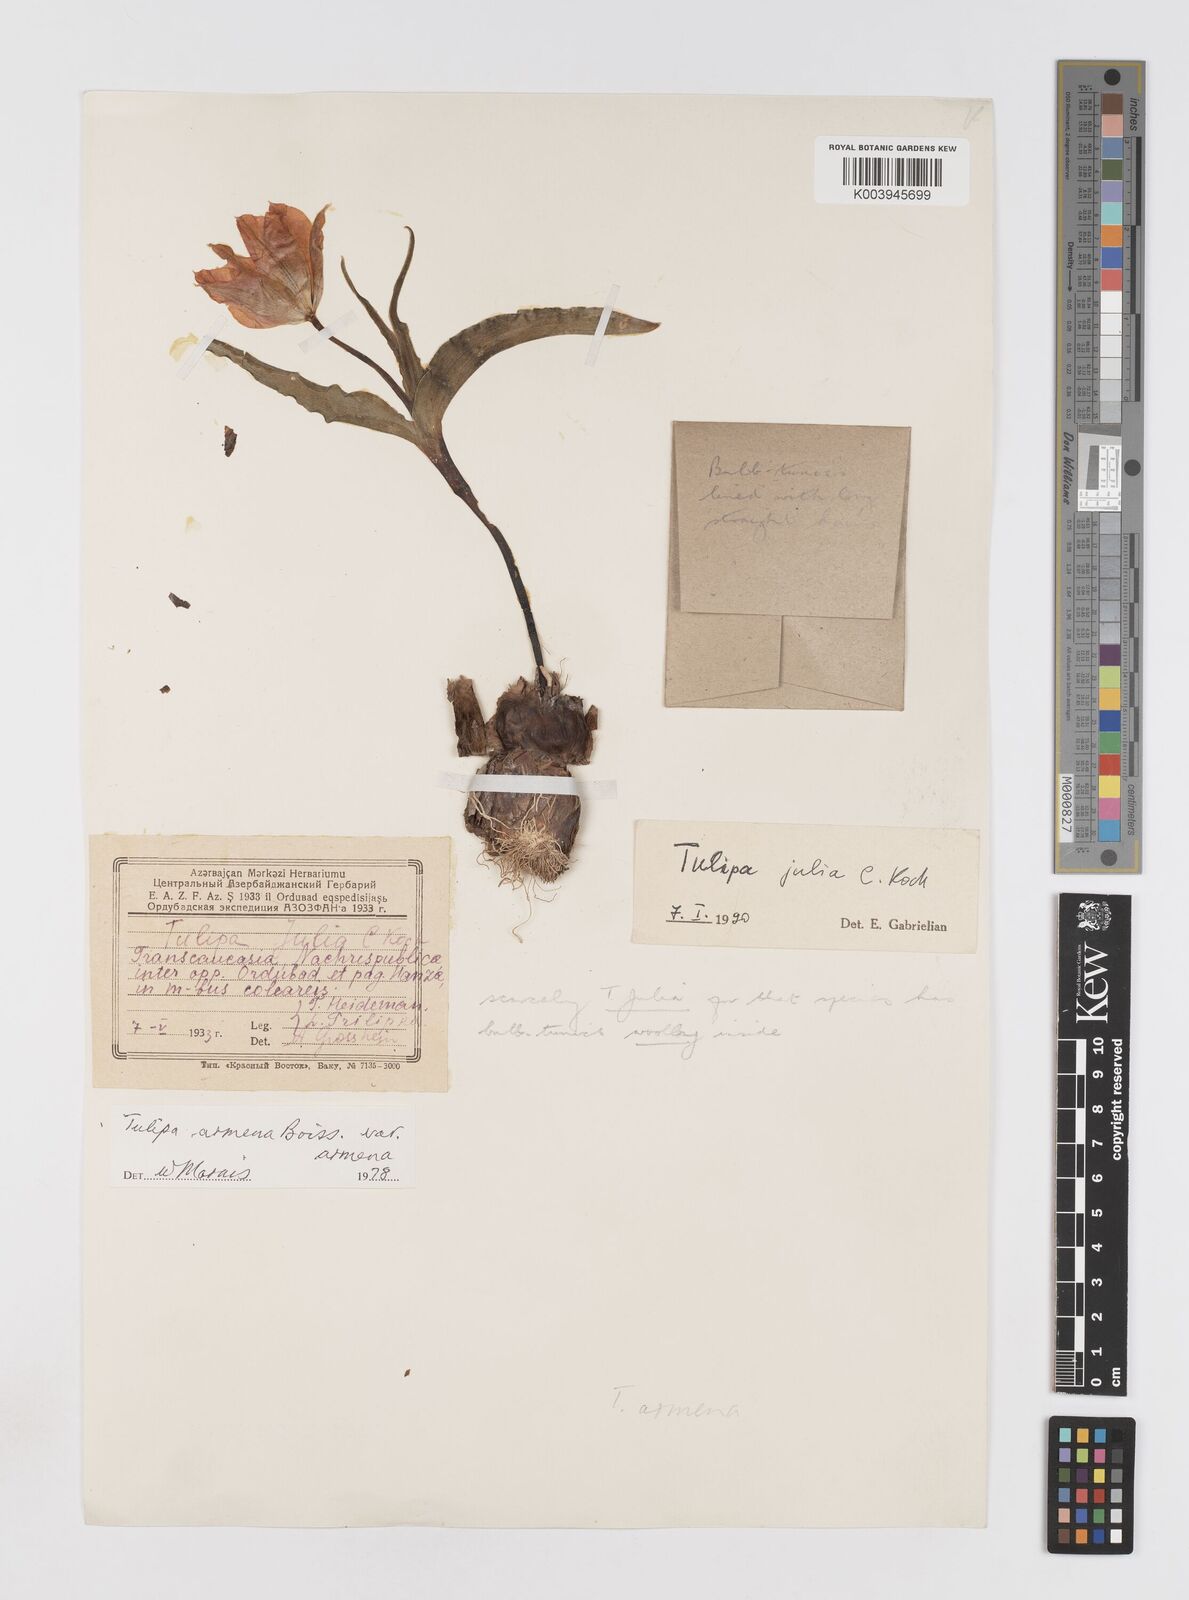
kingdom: Plantae
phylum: Tracheophyta
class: Liliopsida
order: Liliales
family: Liliaceae
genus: Tulipa
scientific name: Tulipa armena
